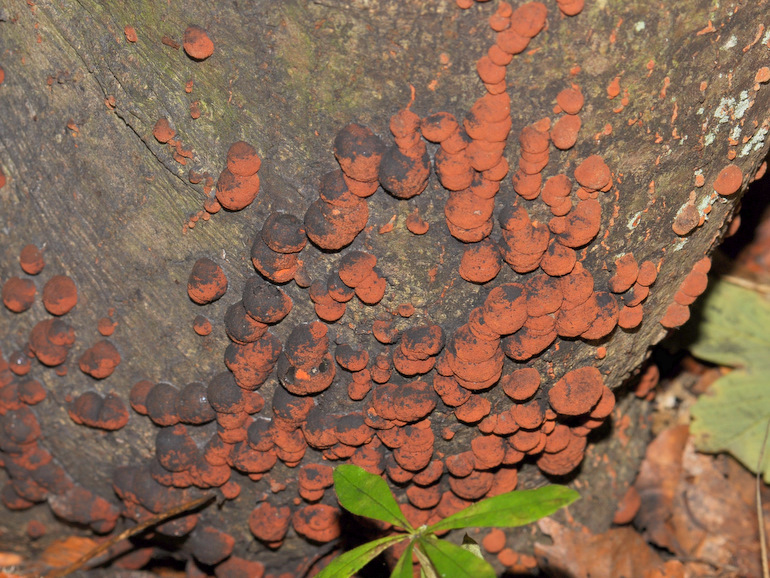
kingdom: Fungi
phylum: Ascomycota
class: Sordariomycetes
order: Xylariales
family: Hypoxylaceae
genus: Hypoxylon
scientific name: Hypoxylon fragiforme
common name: kuljordbær
